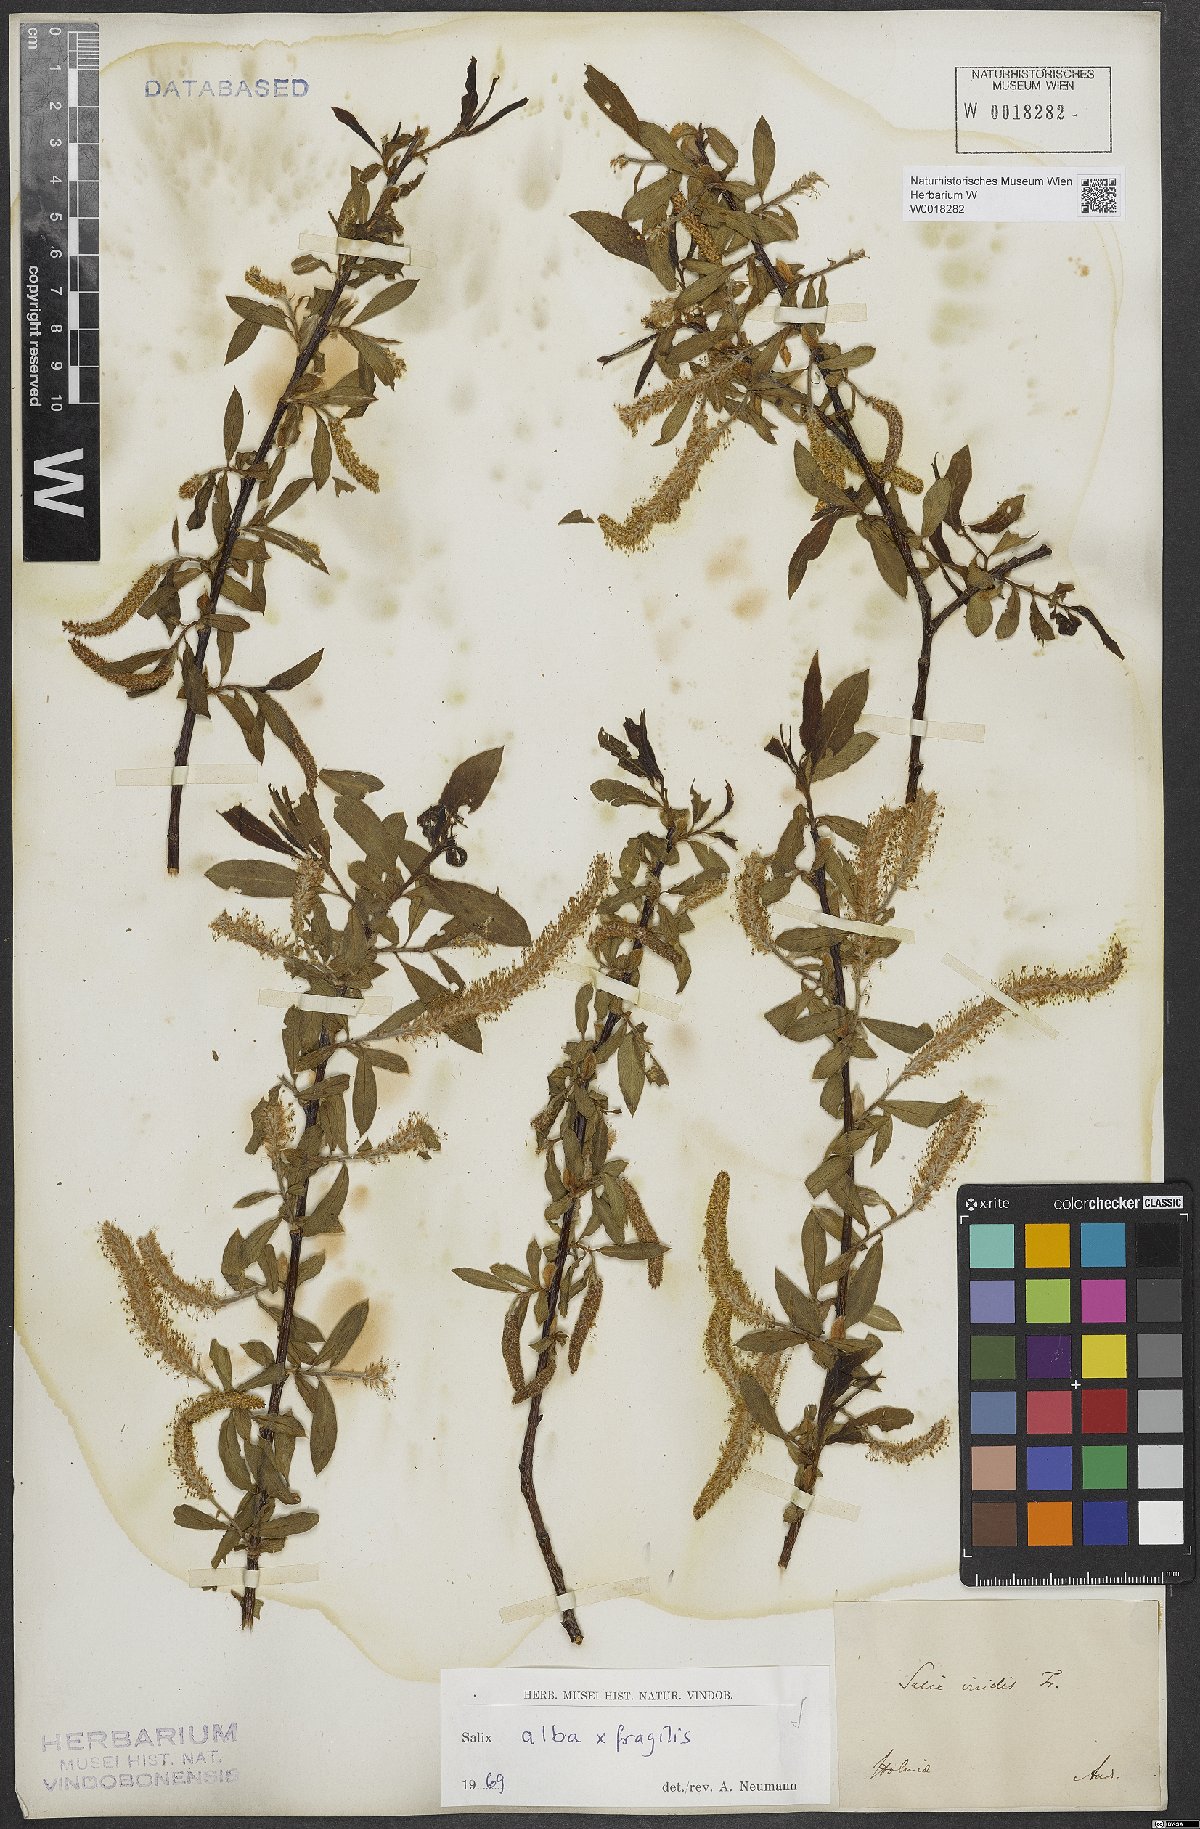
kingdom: Plantae
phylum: Tracheophyta
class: Magnoliopsida
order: Malpighiales
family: Salicaceae
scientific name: Salicaceae
